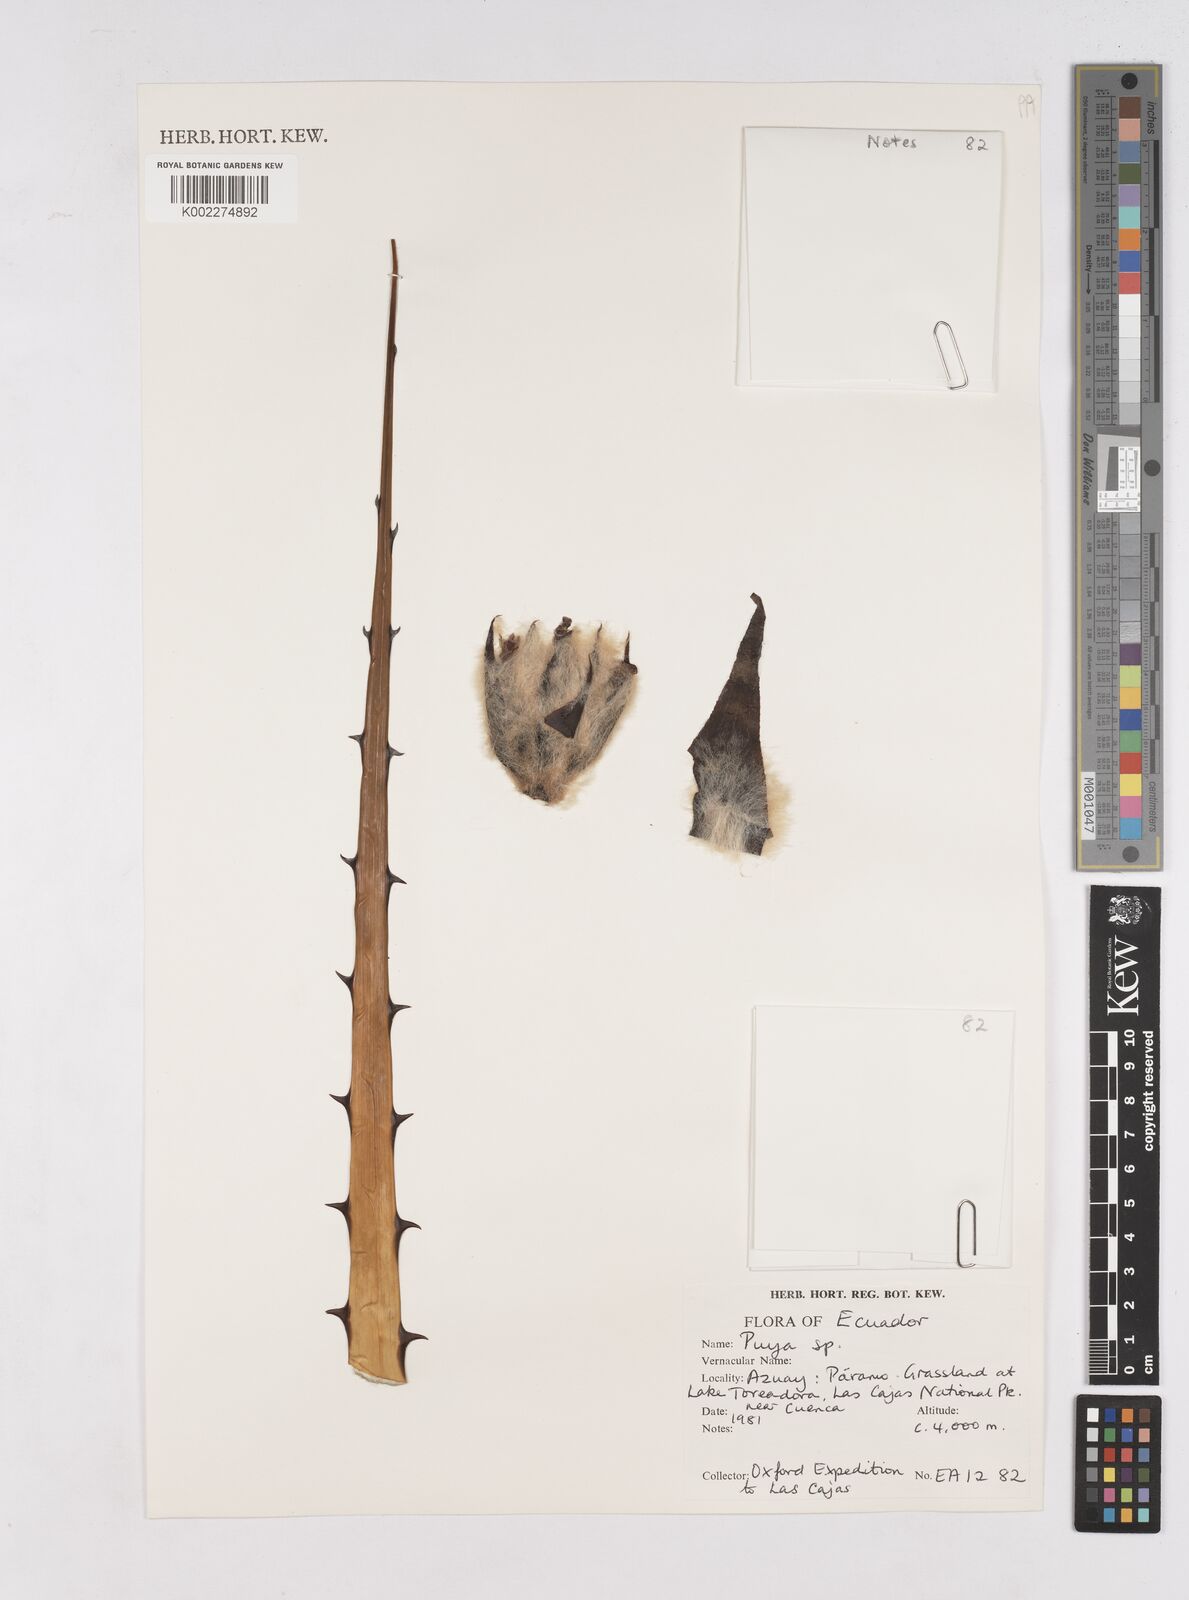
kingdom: Plantae
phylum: Tracheophyta
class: Liliopsida
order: Poales
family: Bromeliaceae
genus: Puya
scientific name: Puya
